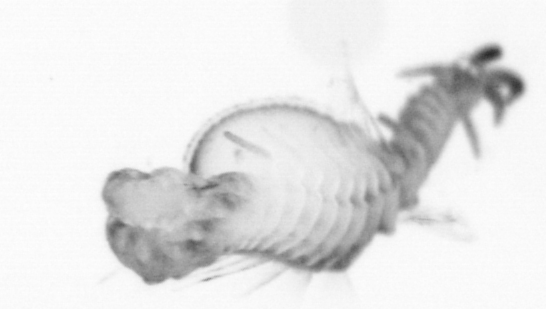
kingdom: Animalia
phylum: Annelida
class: Polychaeta
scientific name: Polychaeta
